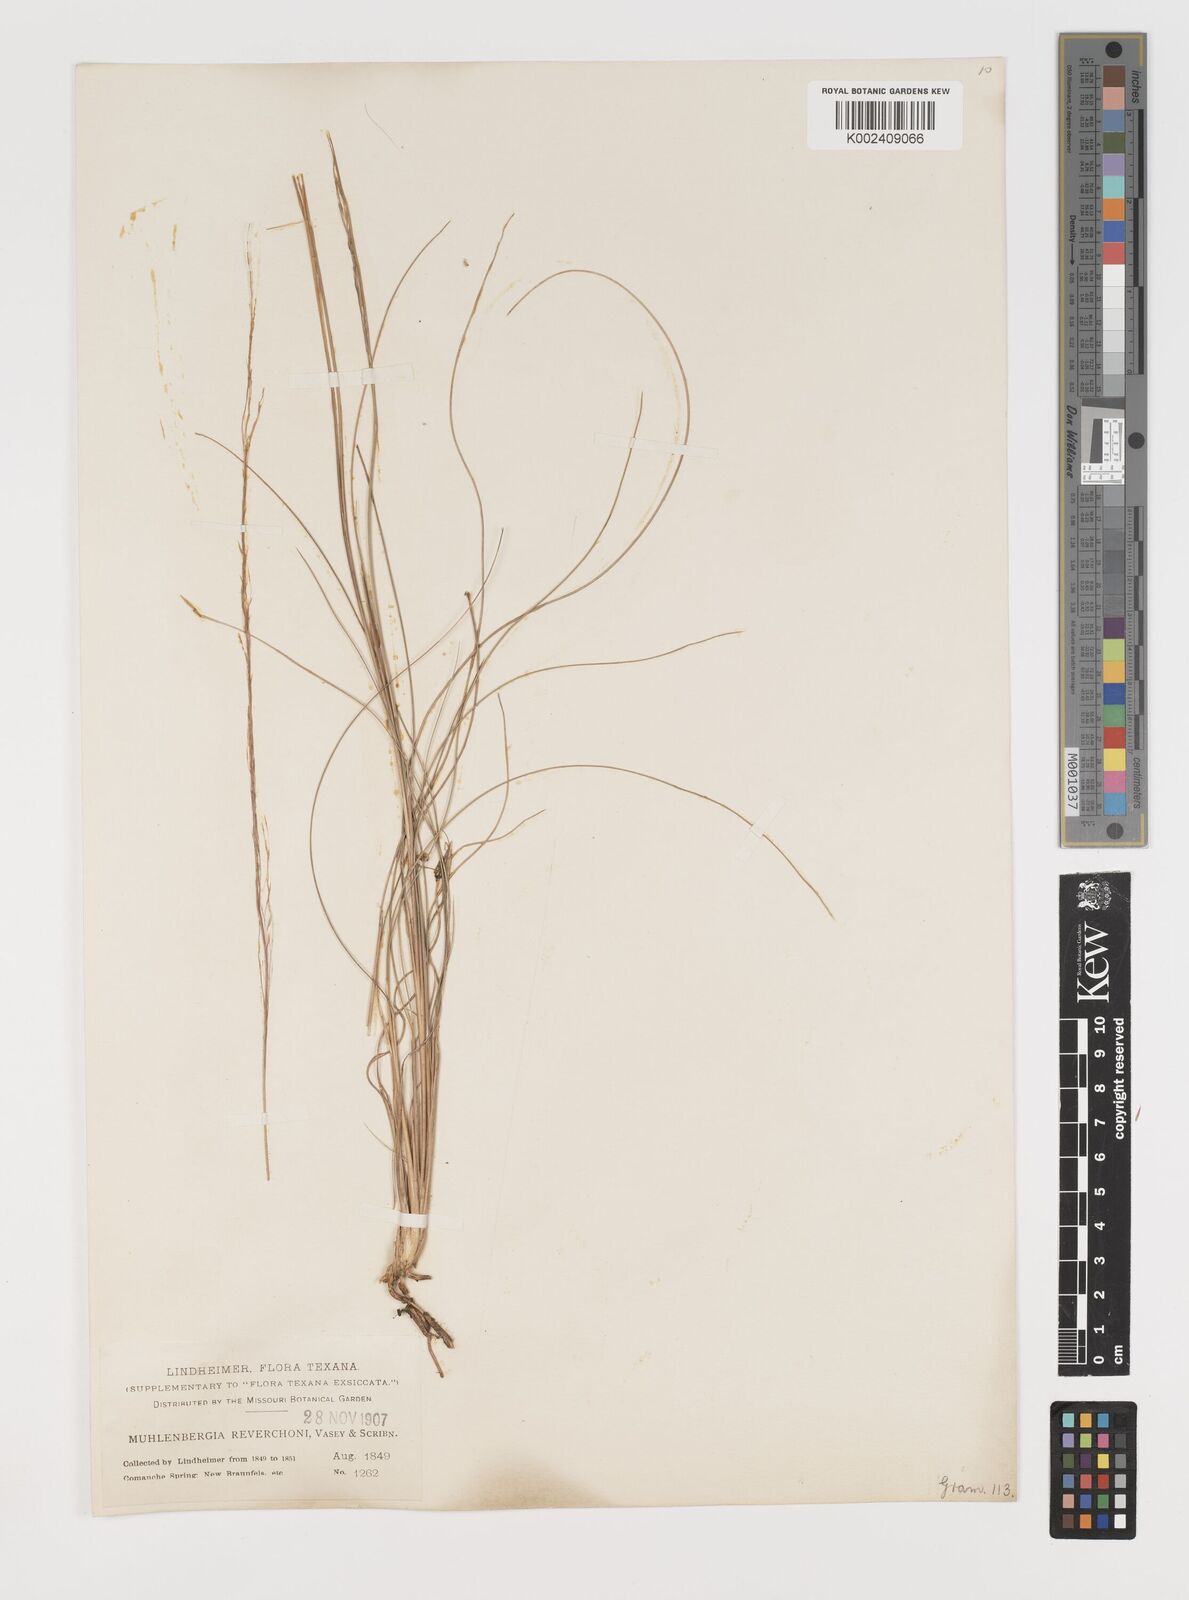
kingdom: Plantae
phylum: Tracheophyta
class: Liliopsida
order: Poales
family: Poaceae
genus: Muhlenbergia
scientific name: Muhlenbergia reverchonii
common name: Seep muhly
